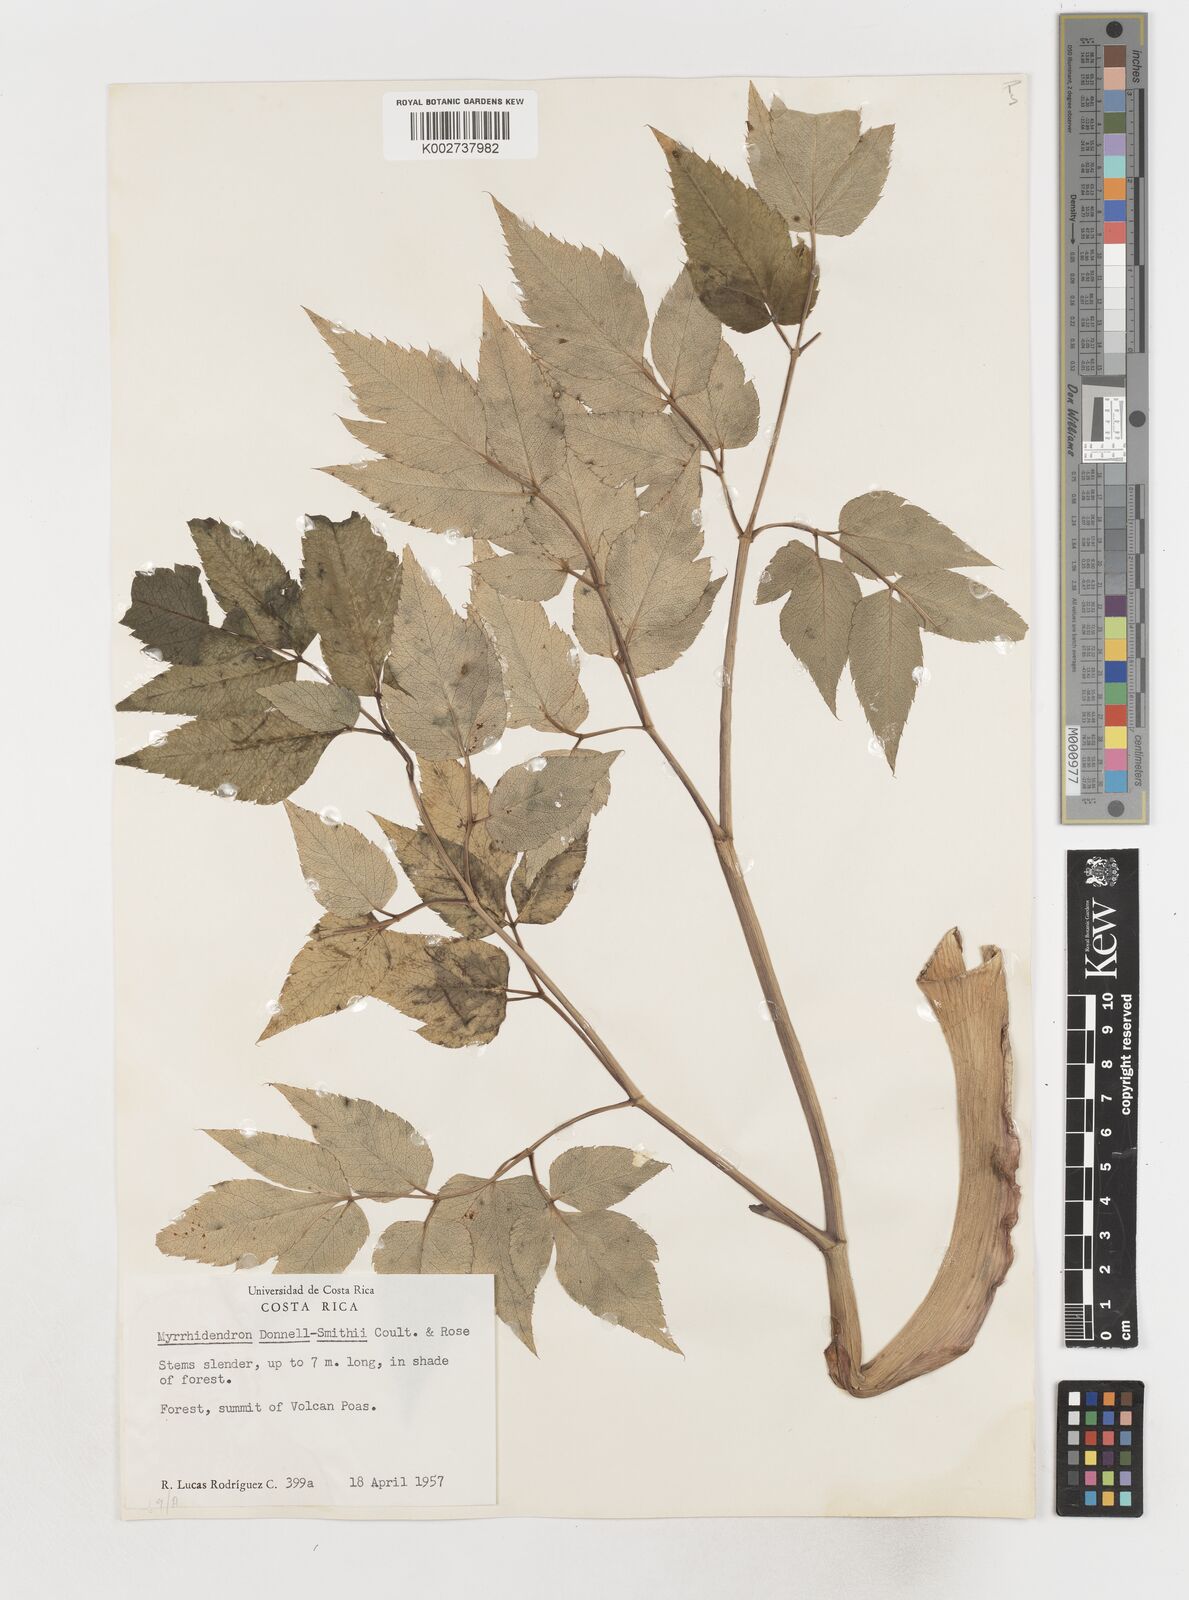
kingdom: Plantae
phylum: Tracheophyta
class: Magnoliopsida
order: Apiales
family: Apiaceae
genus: Myrrhidendron
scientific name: Myrrhidendron donnellsmithii
